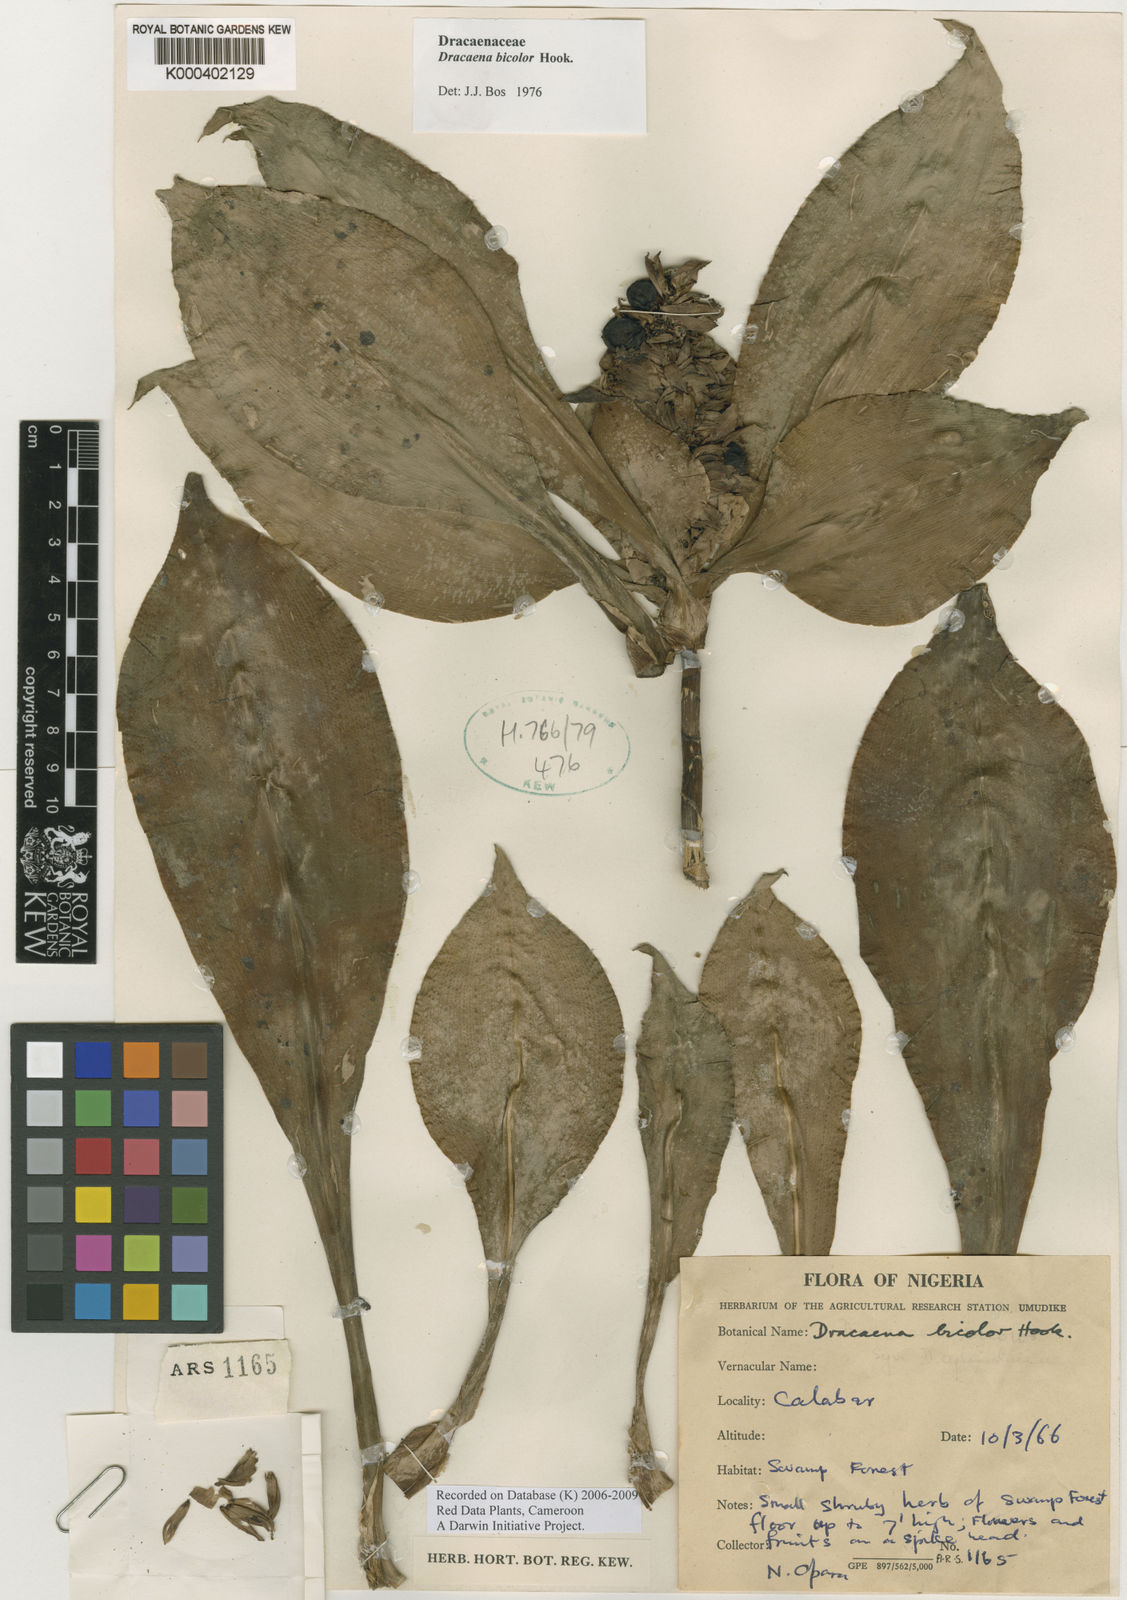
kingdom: Plantae
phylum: Tracheophyta
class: Liliopsida
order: Asparagales
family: Asparagaceae
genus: Dracaena
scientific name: Dracaena bicolor
